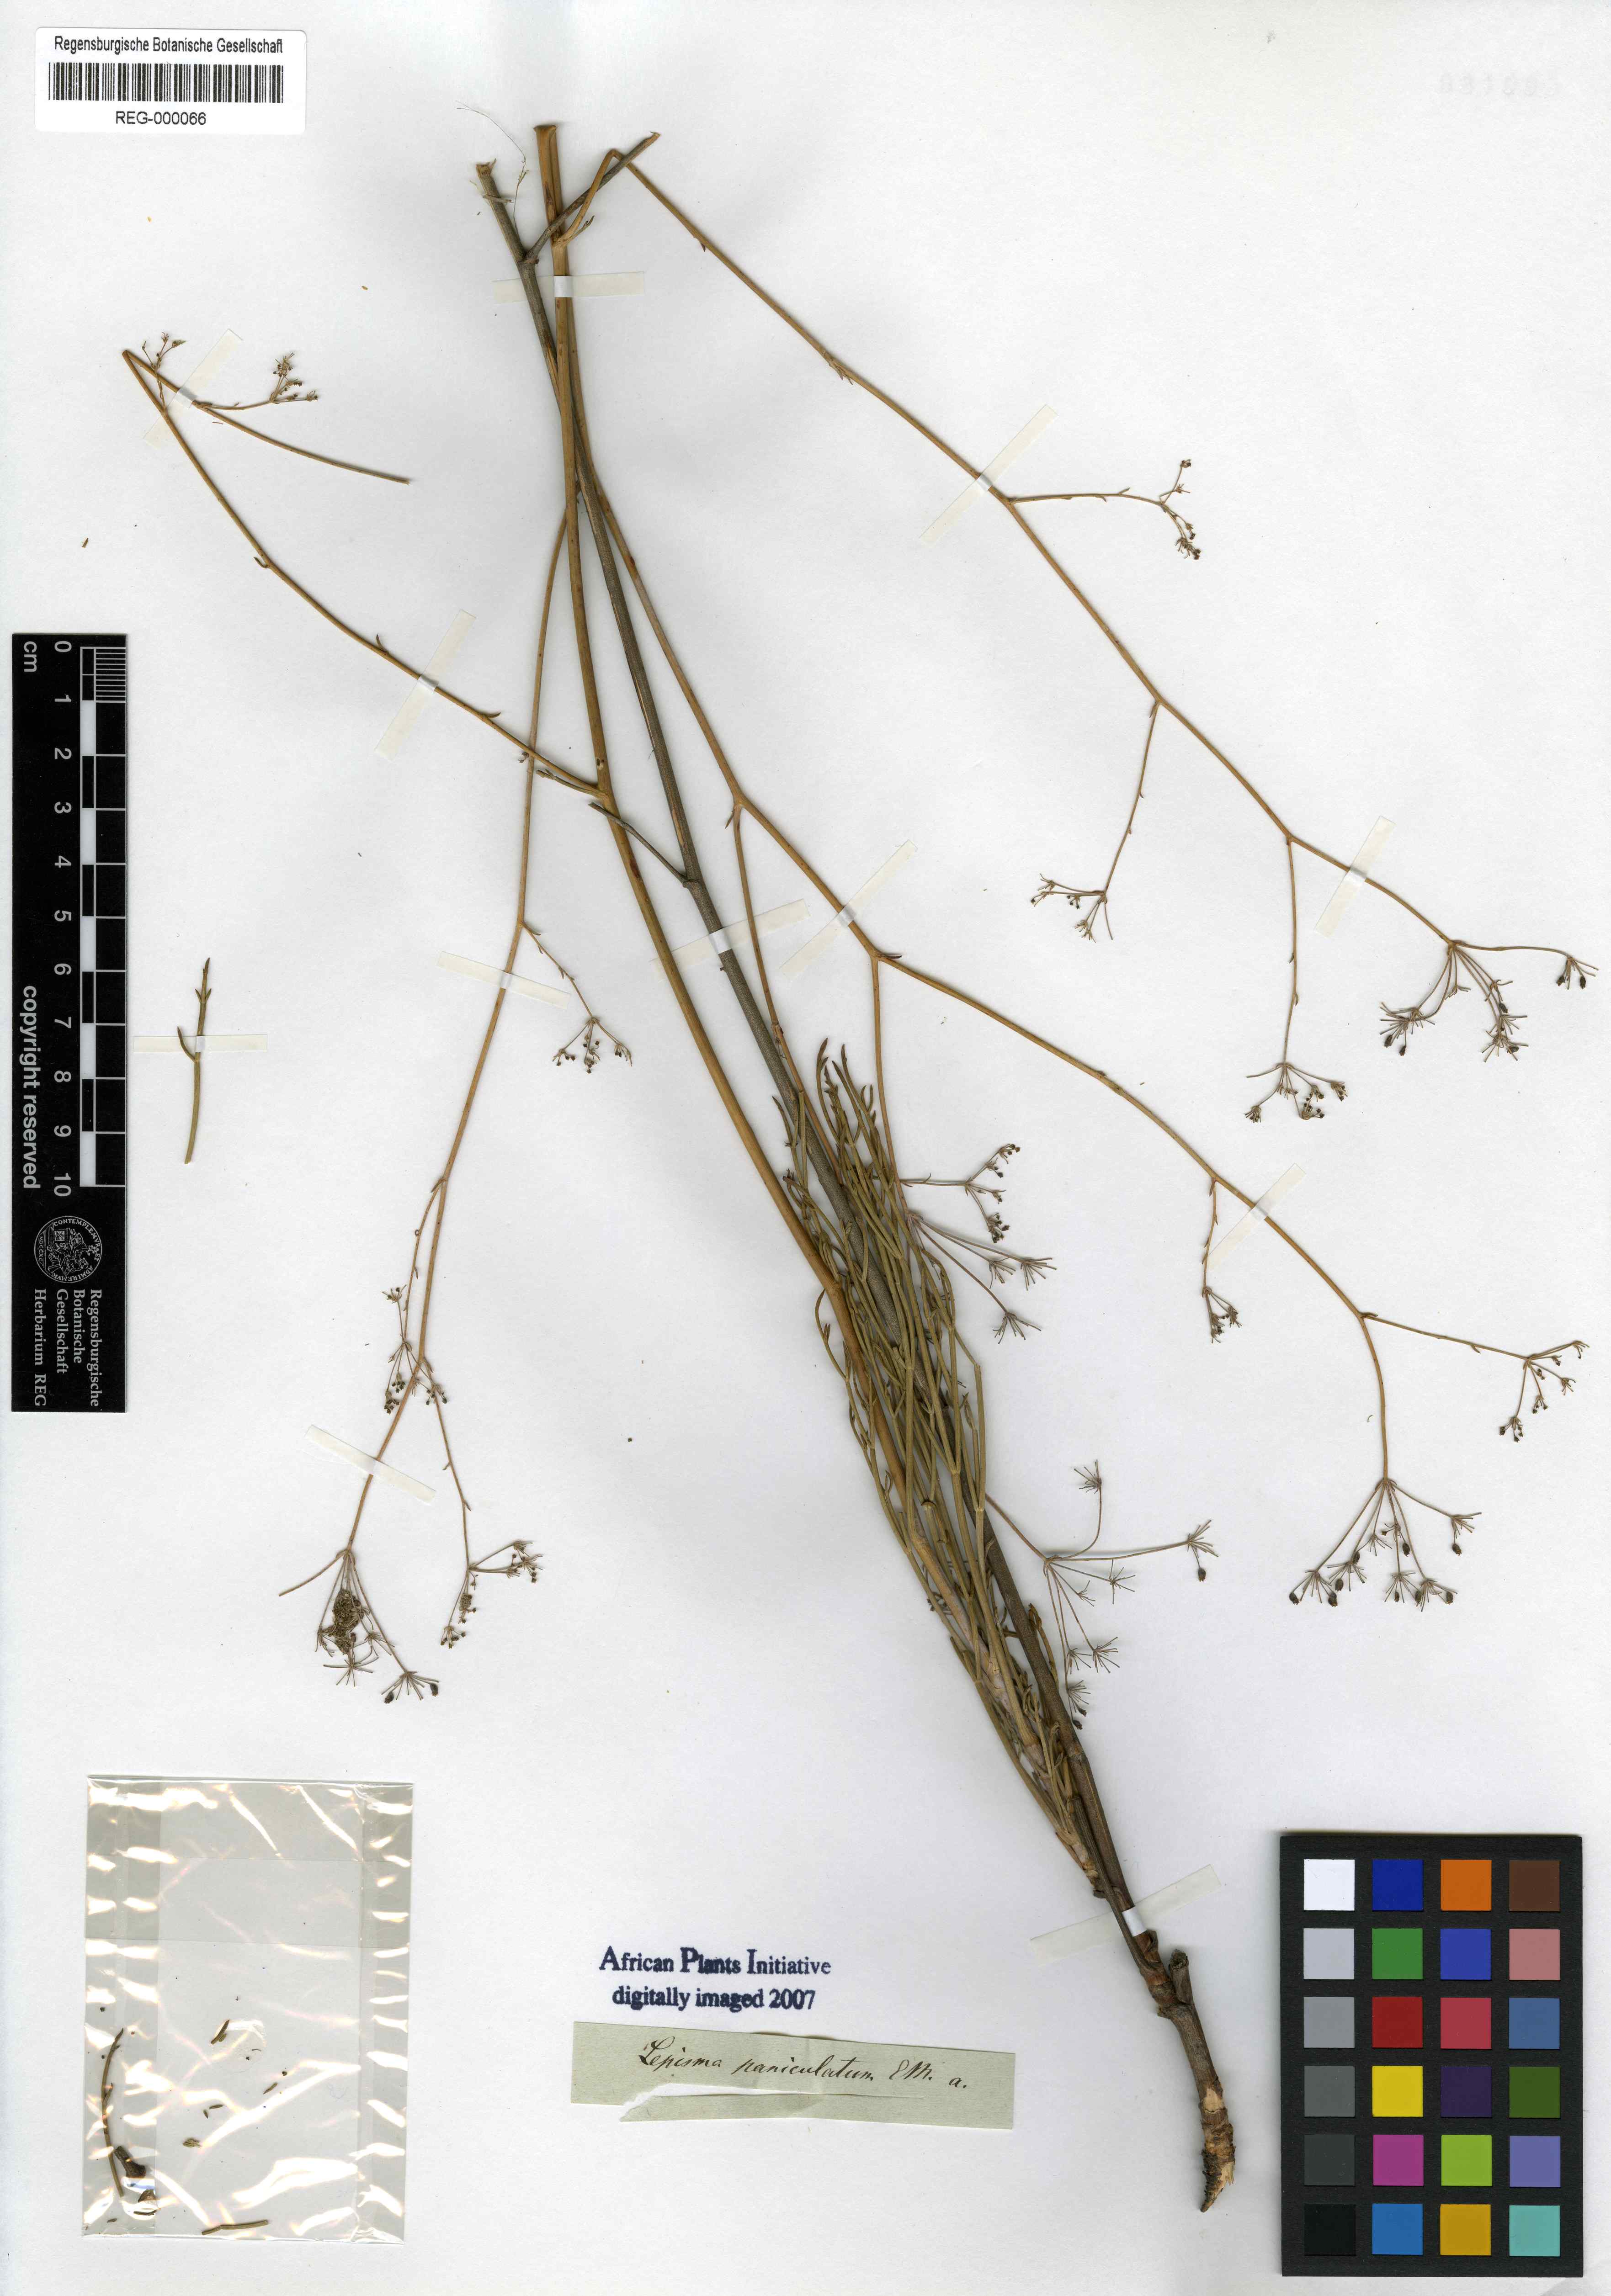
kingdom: Plantae
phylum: Tracheophyta
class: Magnoliopsida
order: Apiales
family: Apiaceae
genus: Anginon
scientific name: Anginon paniculatum
